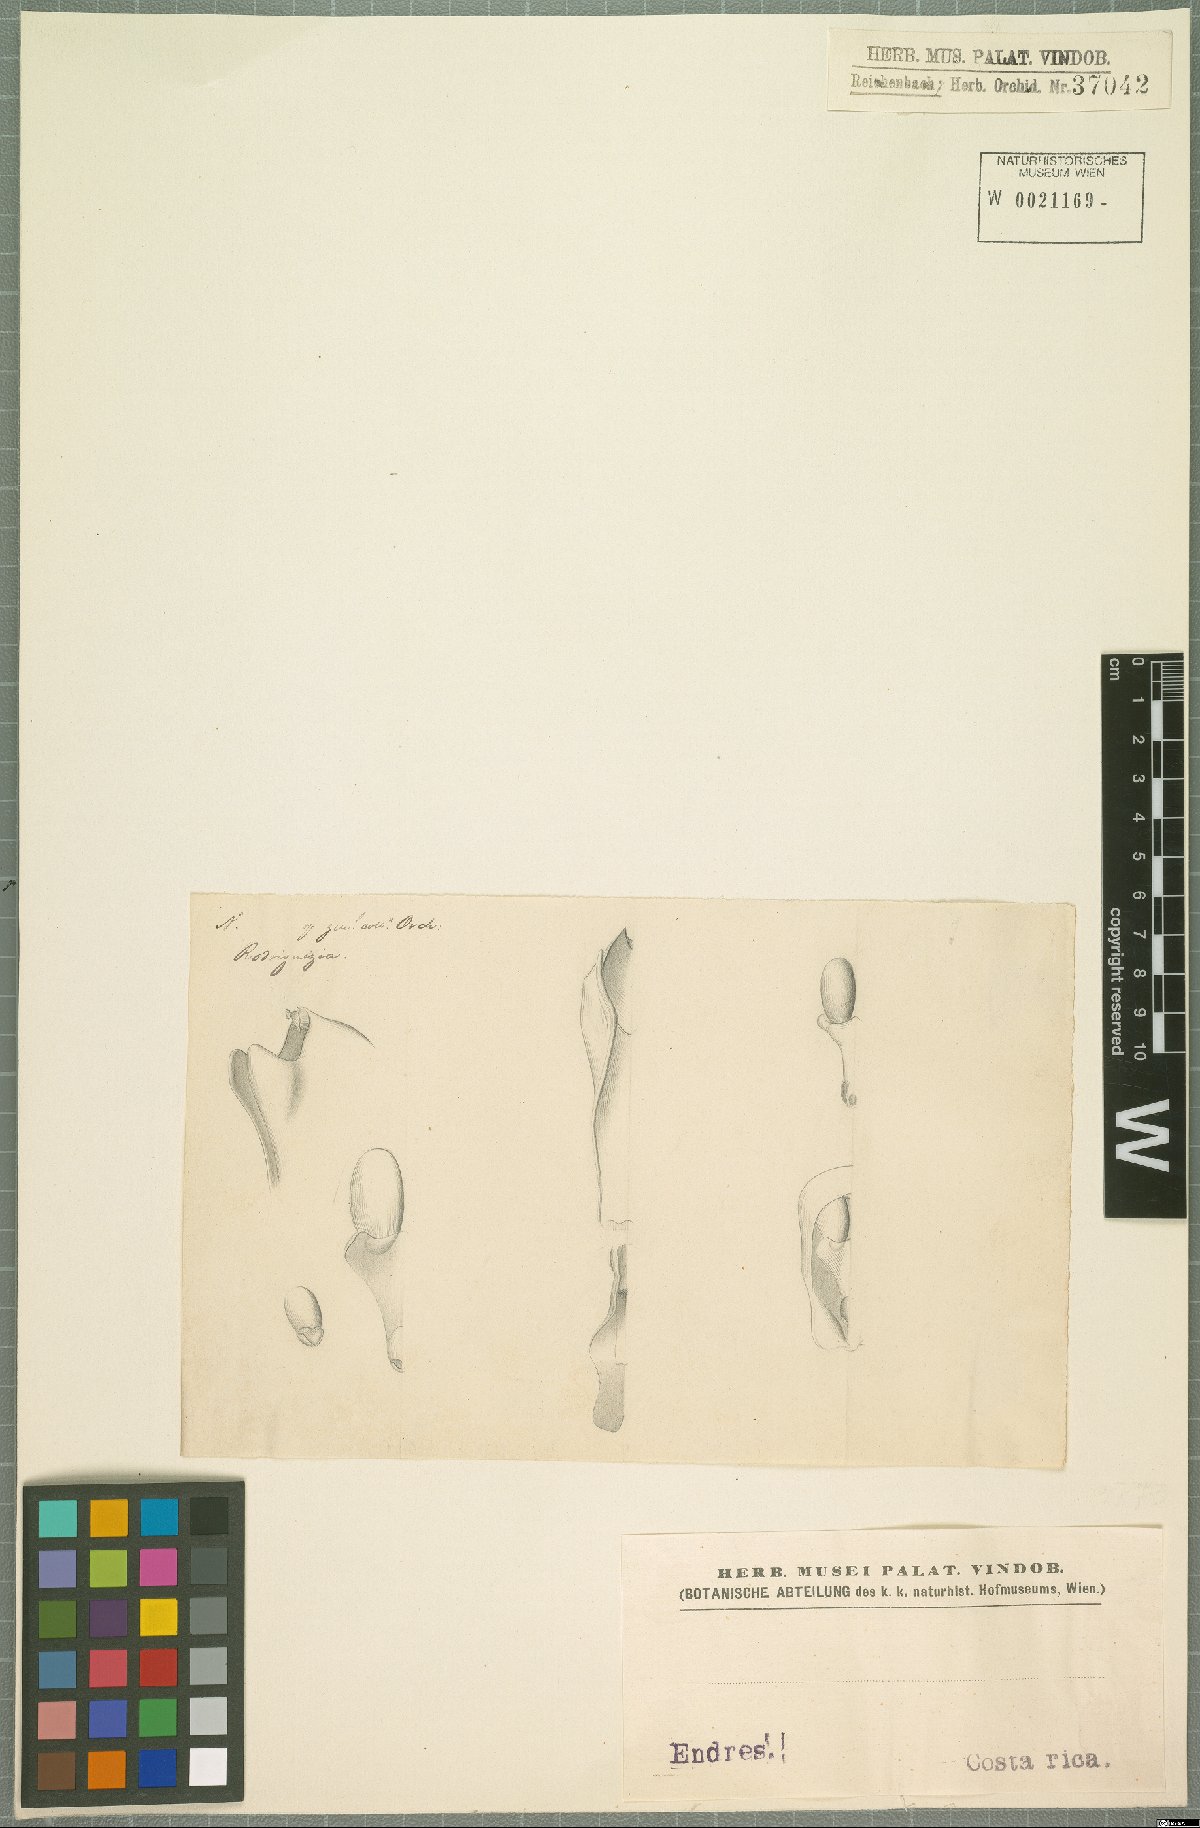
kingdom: Plantae
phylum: Tracheophyta
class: Liliopsida
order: Asparagales
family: Orchidaceae
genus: Rodriguezia
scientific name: Rodriguezia
